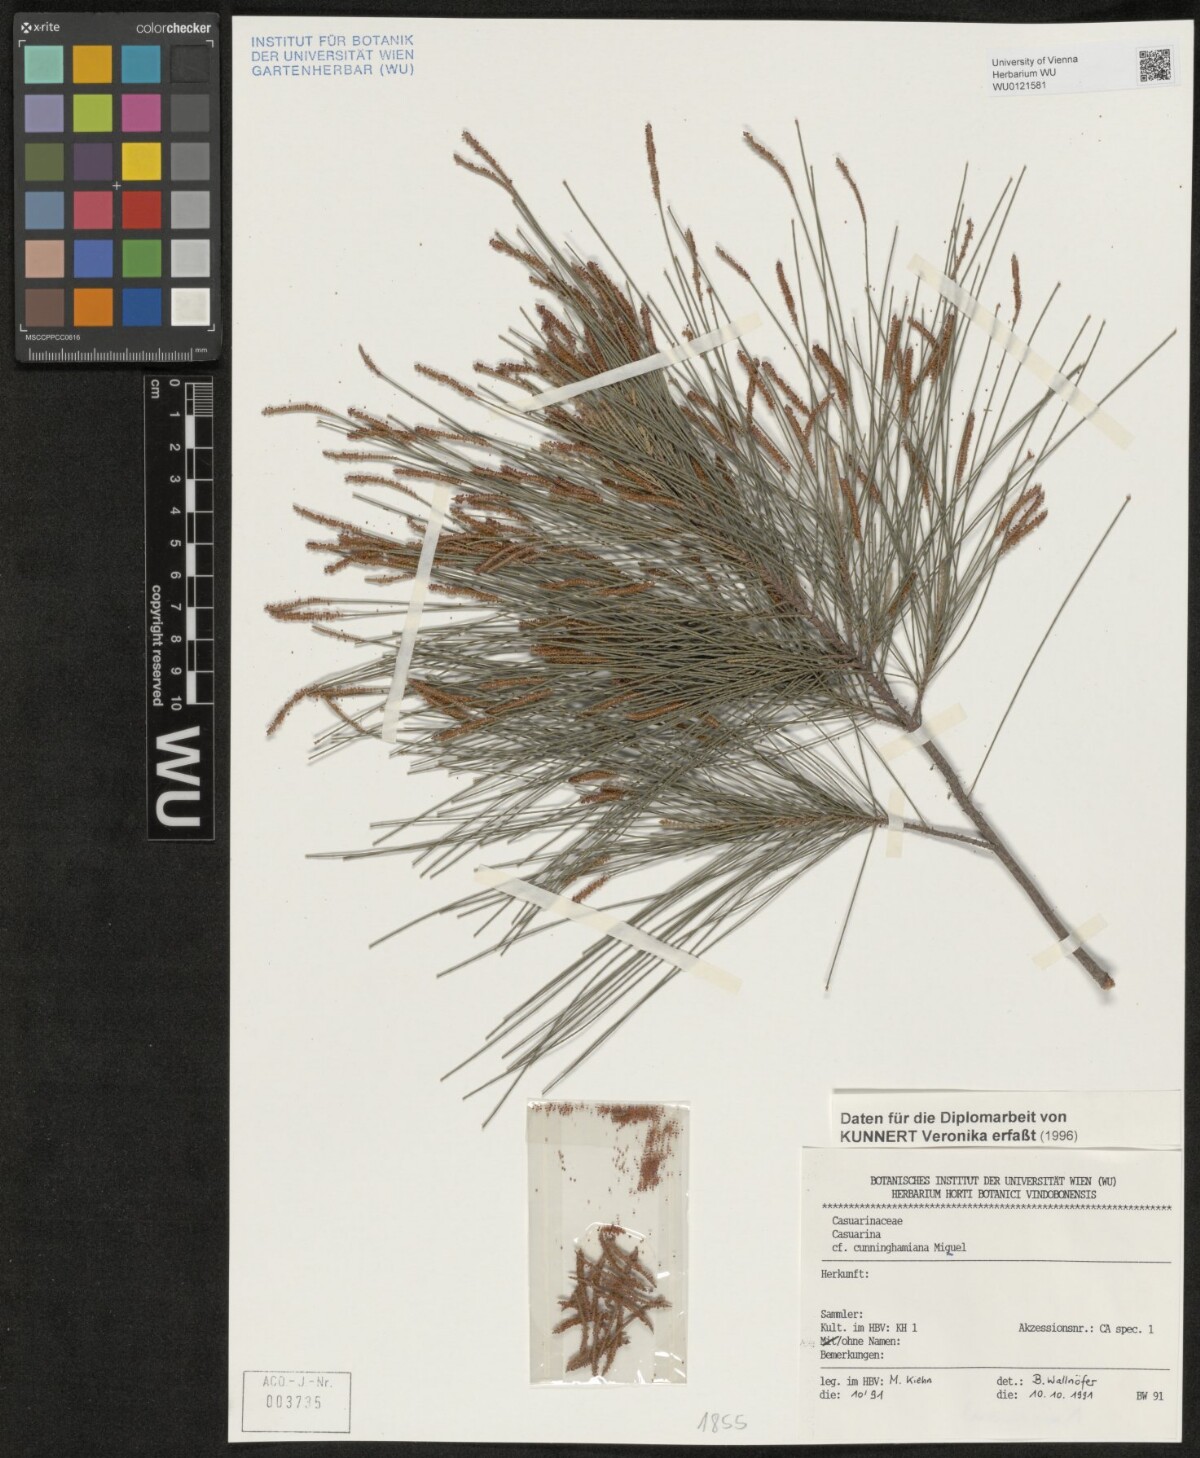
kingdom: Plantae
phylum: Tracheophyta
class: Magnoliopsida
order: Fagales
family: Casuarinaceae
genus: Casuarina
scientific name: Casuarina cunninghamiana
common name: River sheoak
